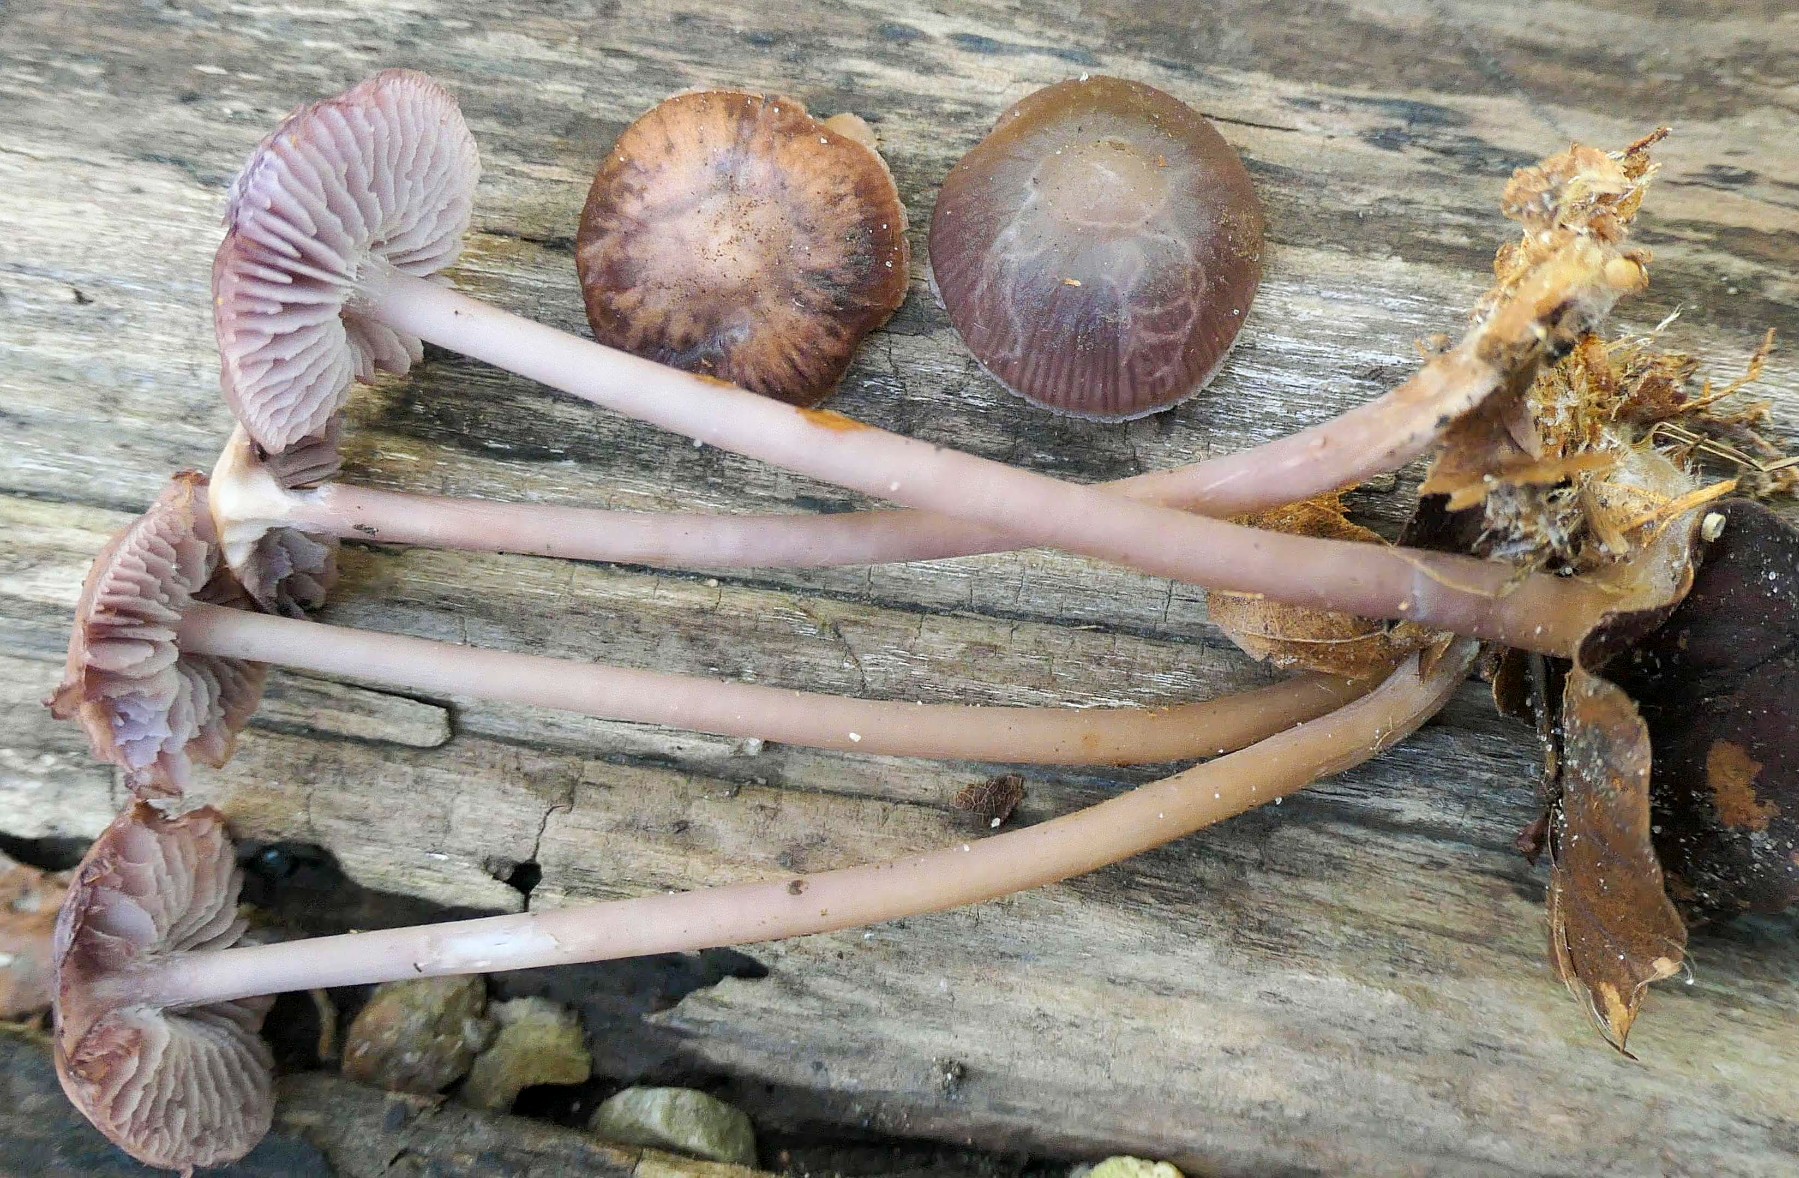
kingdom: Fungi
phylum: Basidiomycota
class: Agaricomycetes
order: Agaricales
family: Mycenaceae
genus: Prunulus
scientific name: Prunulus diosmus
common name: tobaks-huesvamp
